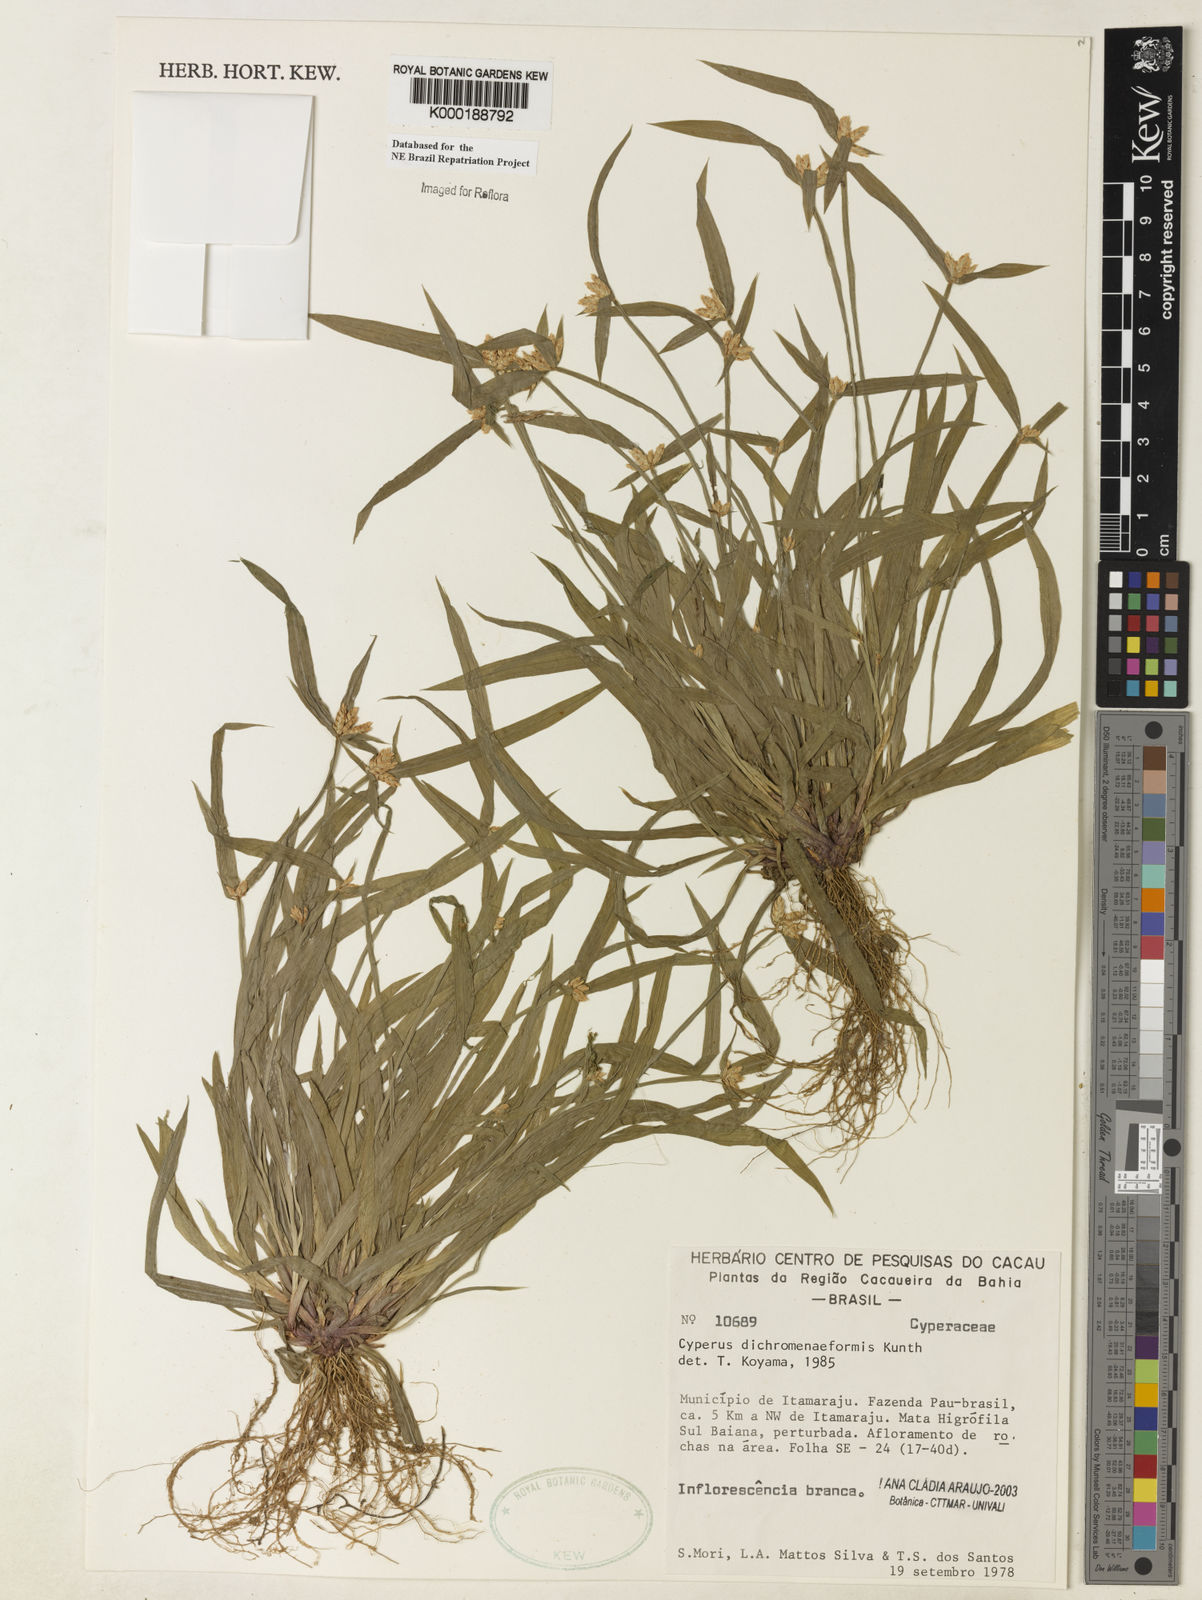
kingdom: Plantae
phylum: Tracheophyta
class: Liliopsida
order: Poales
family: Cyperaceae
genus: Cyperus
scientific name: Cyperus dichromeniformis
